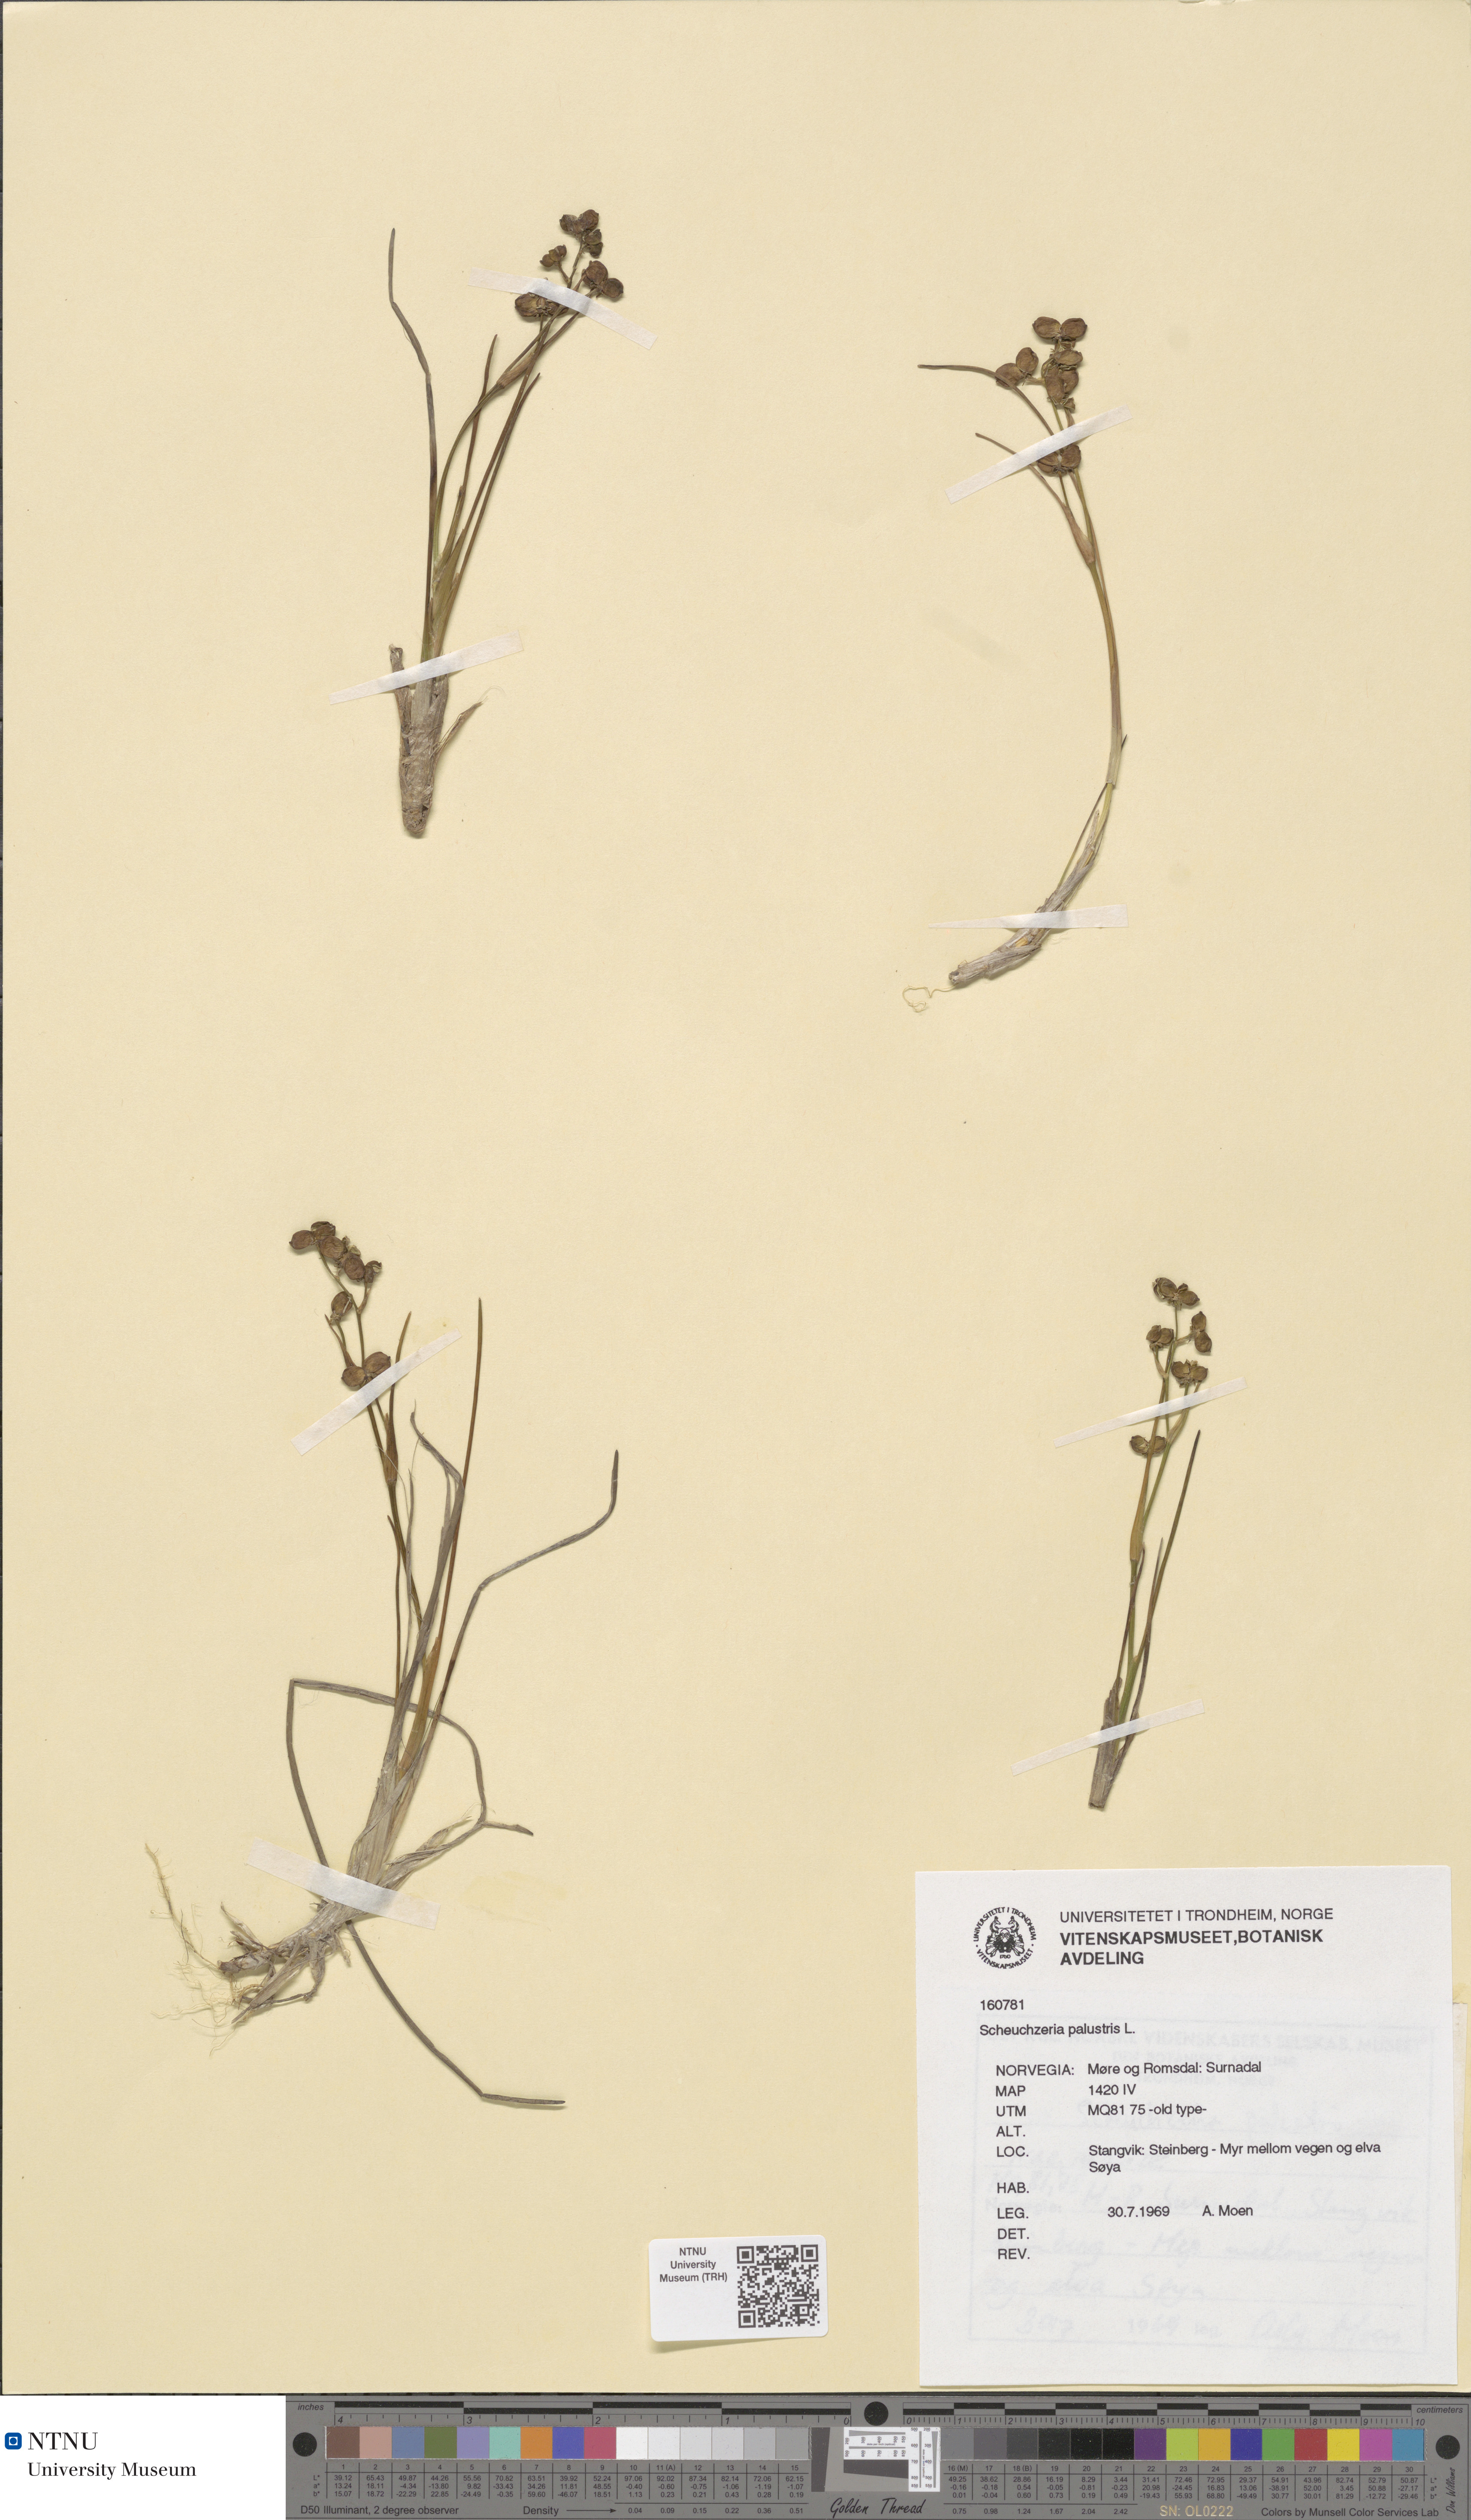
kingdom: Plantae
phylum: Tracheophyta
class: Liliopsida
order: Alismatales
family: Scheuchzeriaceae
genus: Scheuchzeria
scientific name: Scheuchzeria palustris
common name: Rannoch-rush
